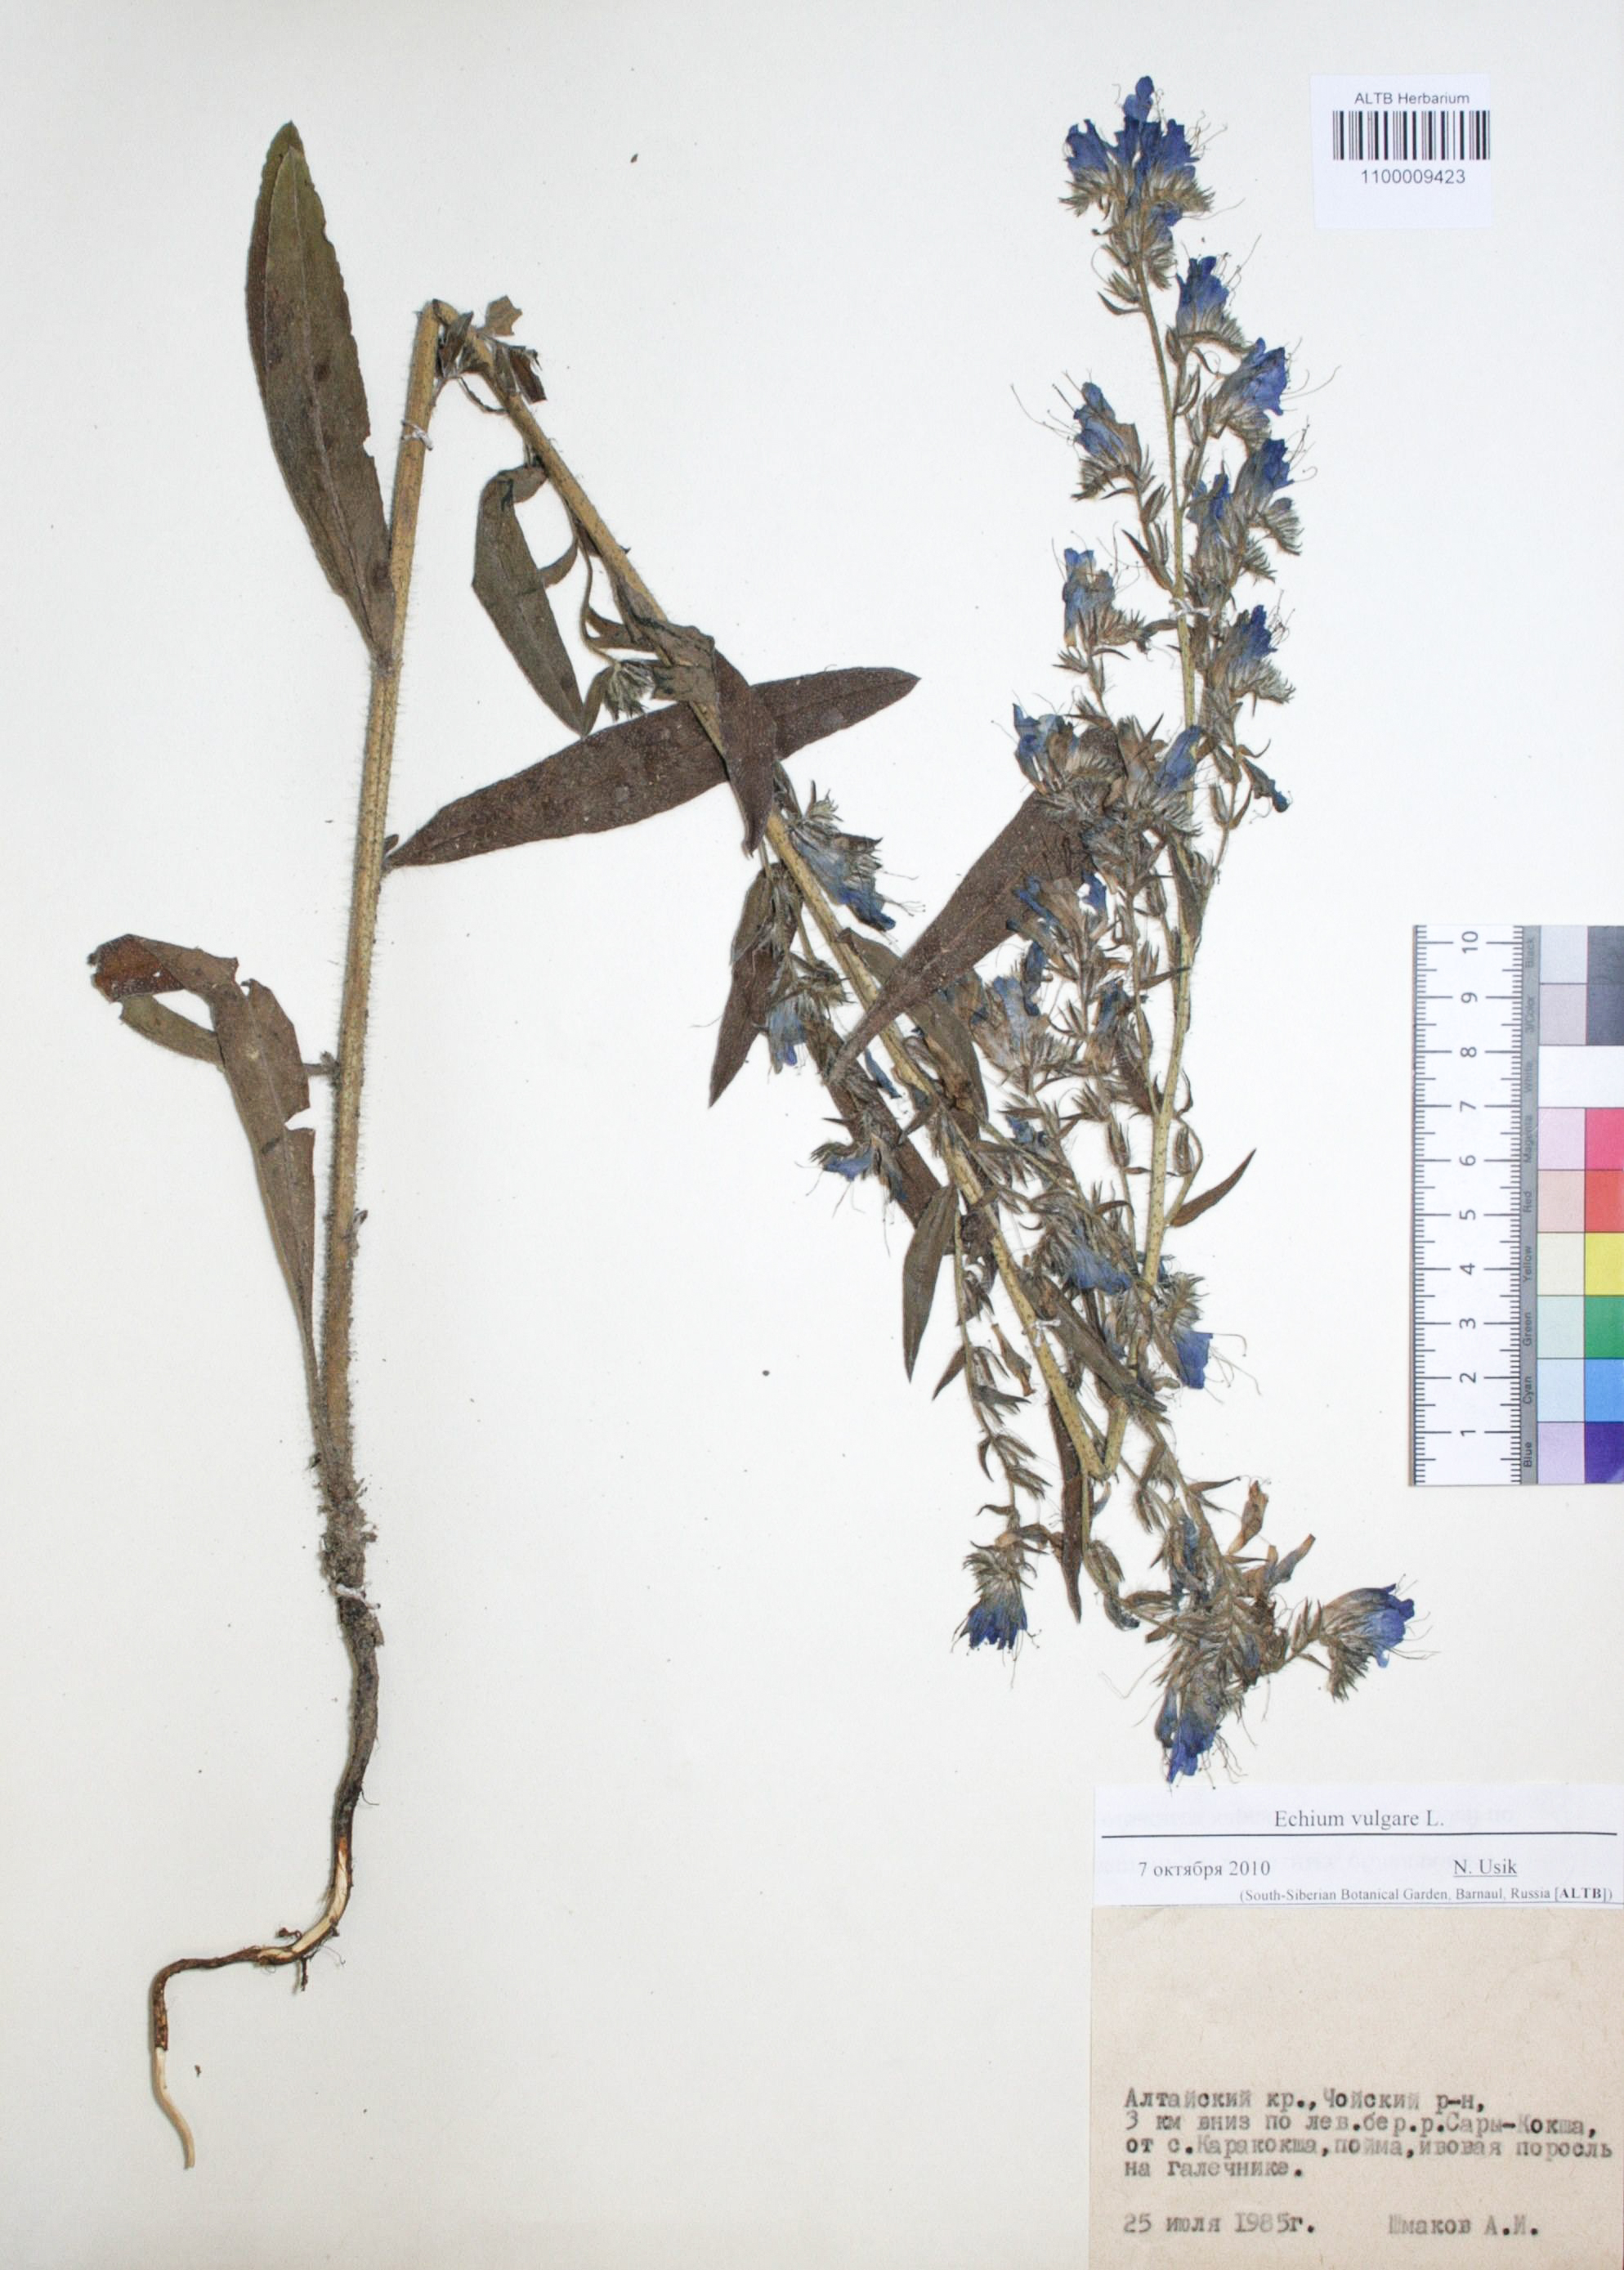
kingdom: Plantae
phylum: Tracheophyta
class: Magnoliopsida
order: Boraginales
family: Boraginaceae
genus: Echium
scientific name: Echium vulgare
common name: Common viper's bugloss
